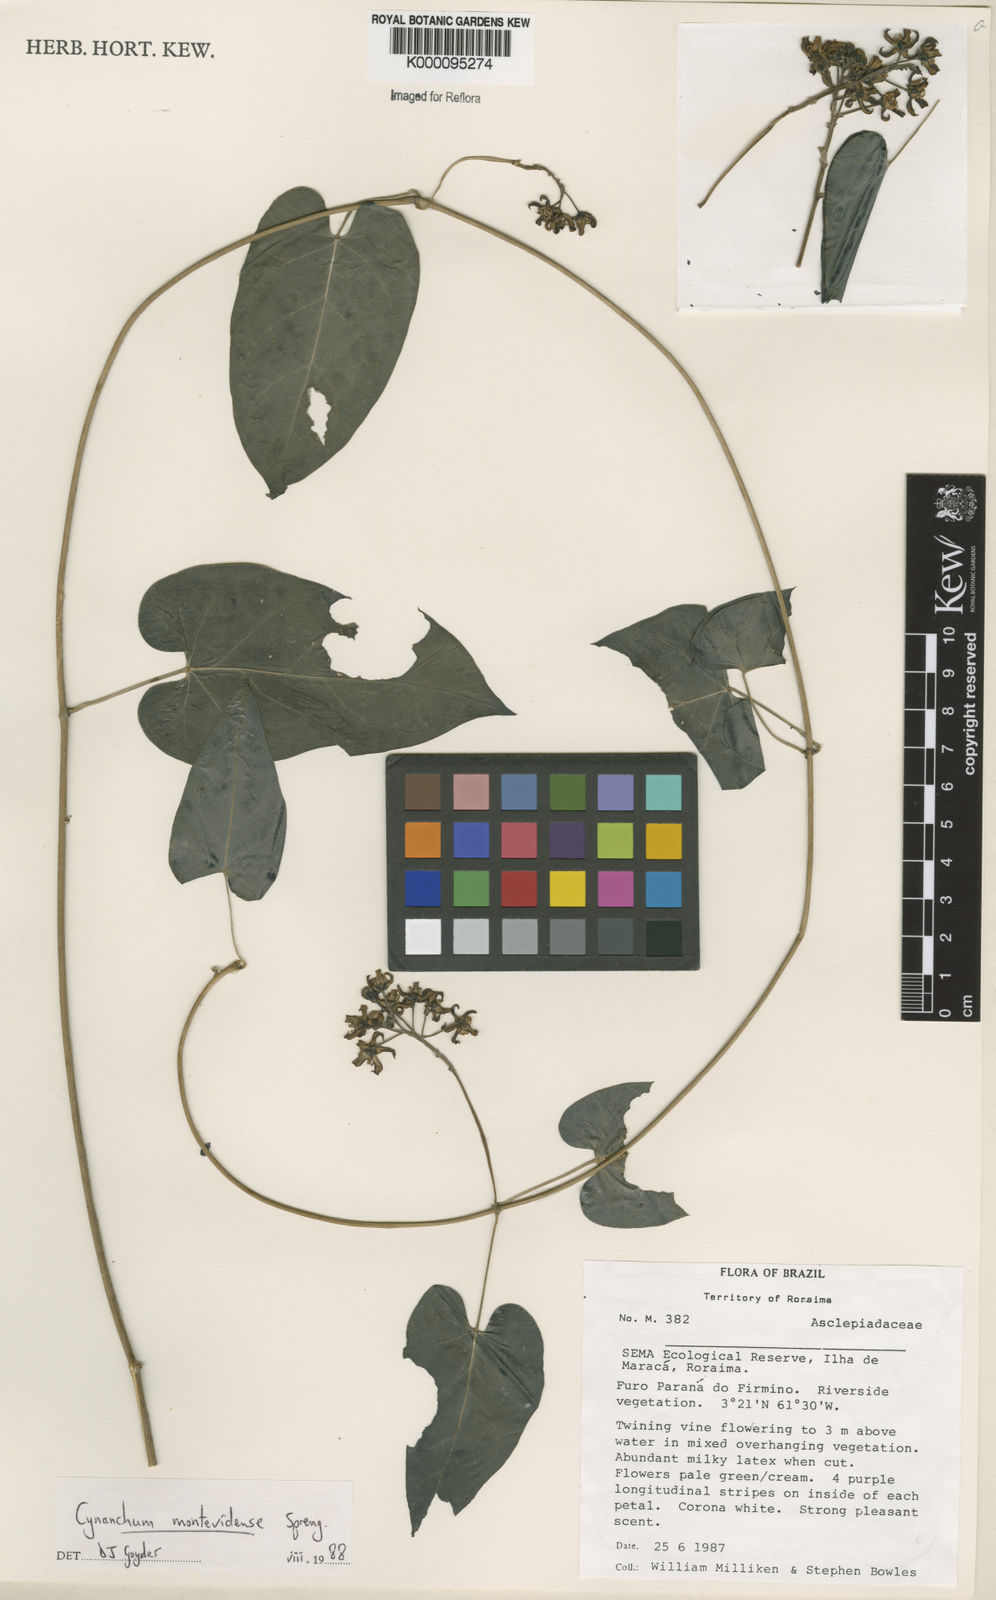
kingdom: Plantae
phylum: Tracheophyta
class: Magnoliopsida
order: Gentianales
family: Apocynaceae
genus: Cynanchum
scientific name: Cynanchum montevidense
